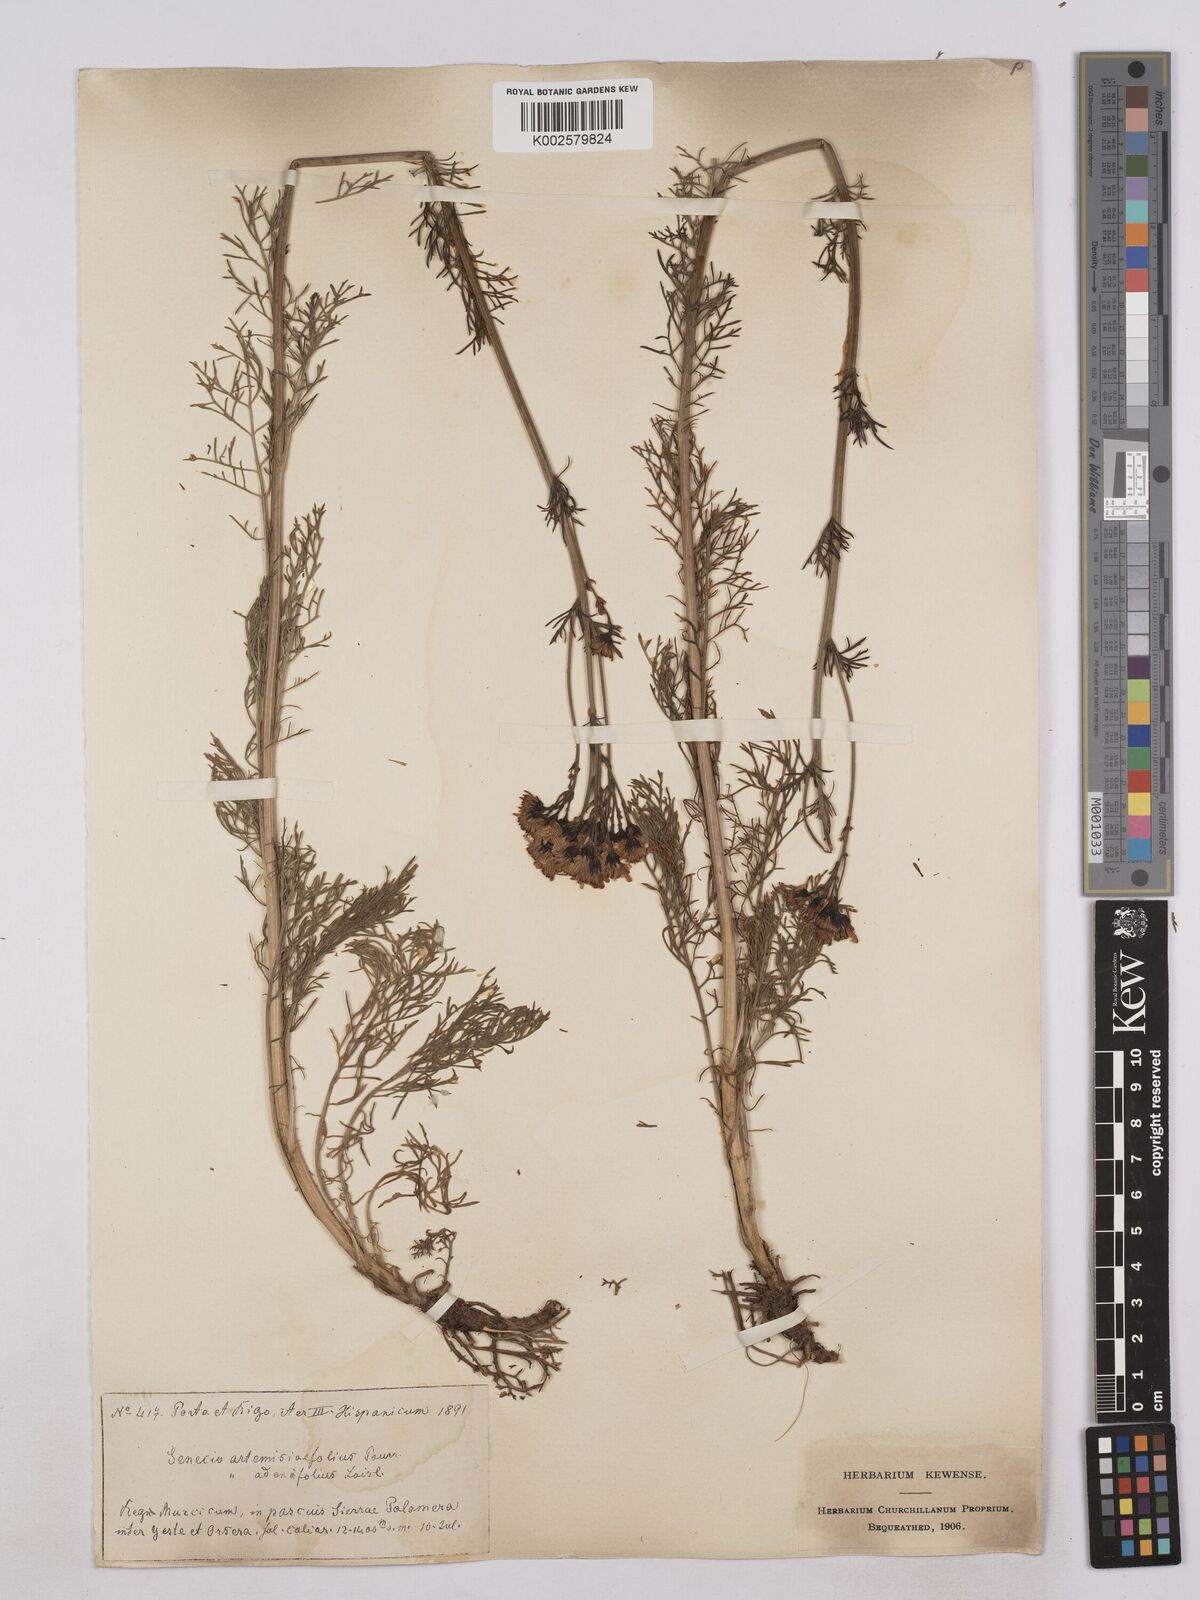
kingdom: Plantae
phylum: Tracheophyta
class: Magnoliopsida
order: Asterales
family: Asteraceae
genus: Jacobaea
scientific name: Jacobaea adonidifolia
